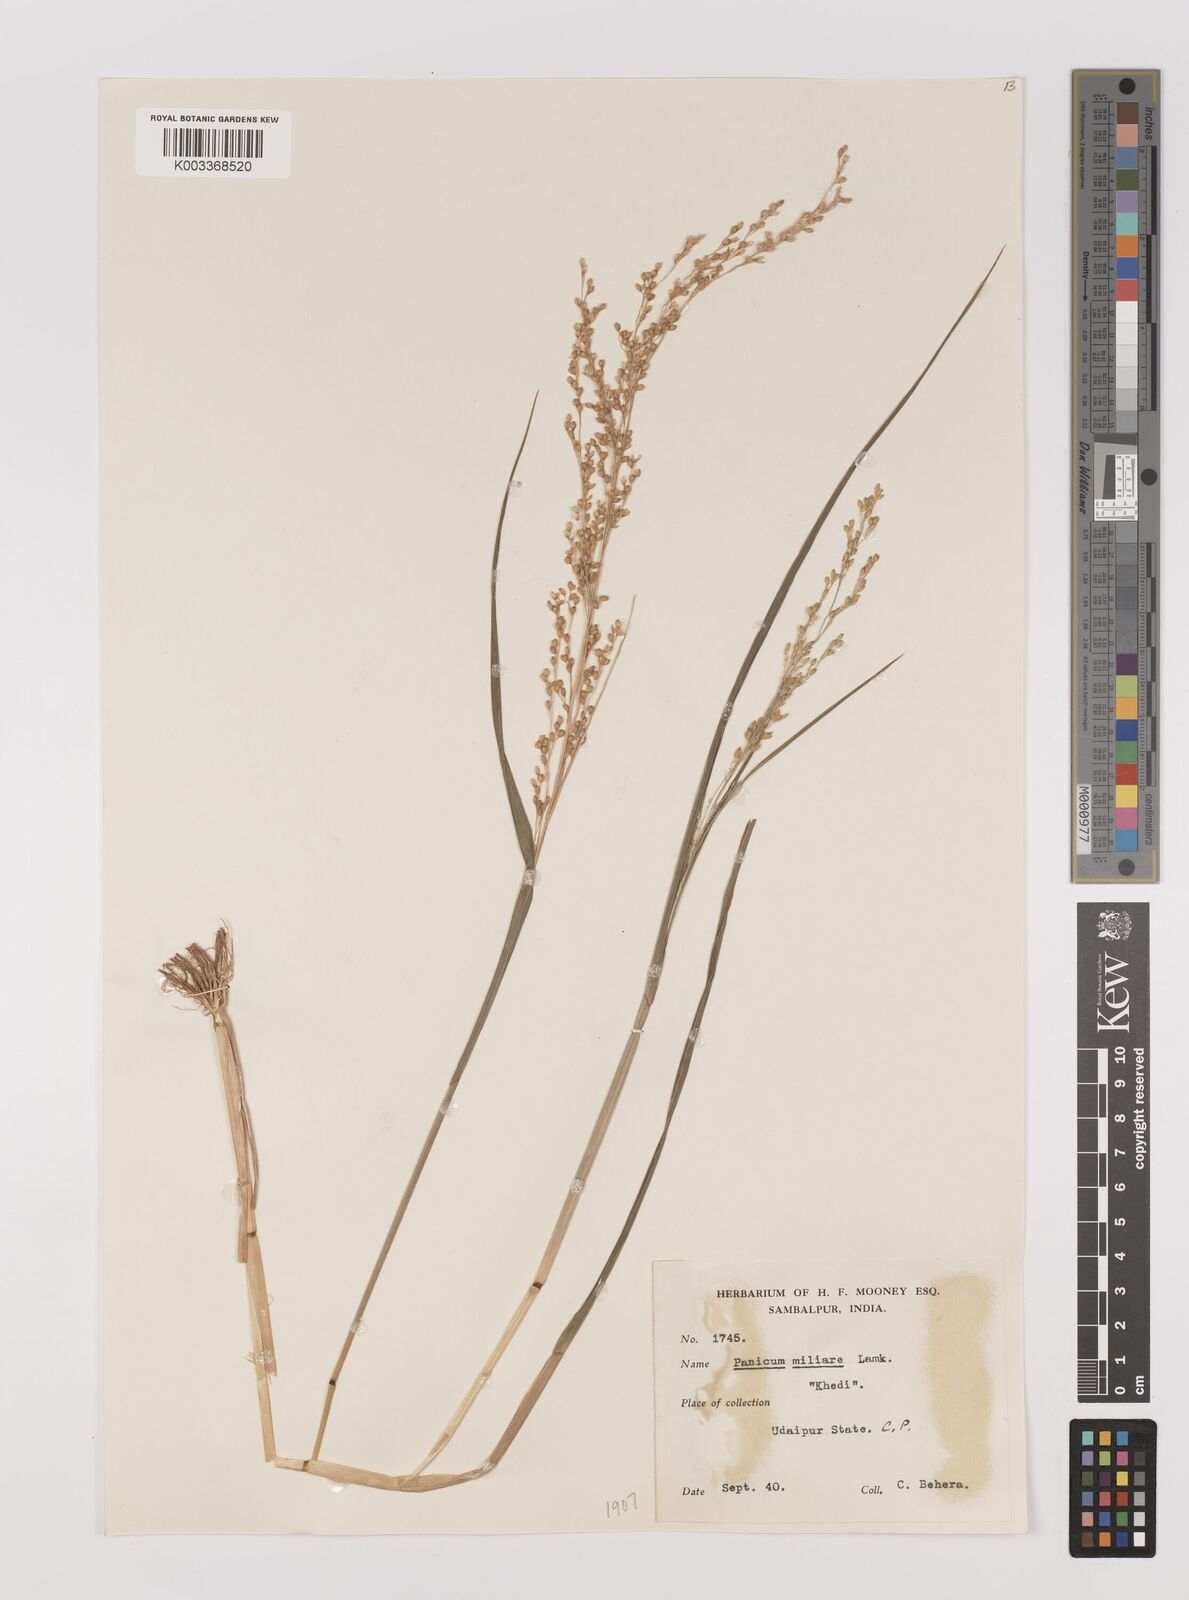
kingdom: Plantae
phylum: Tracheophyta
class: Liliopsida
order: Poales
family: Poaceae
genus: Panicum
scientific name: Panicum sumatrense
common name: Little millet
